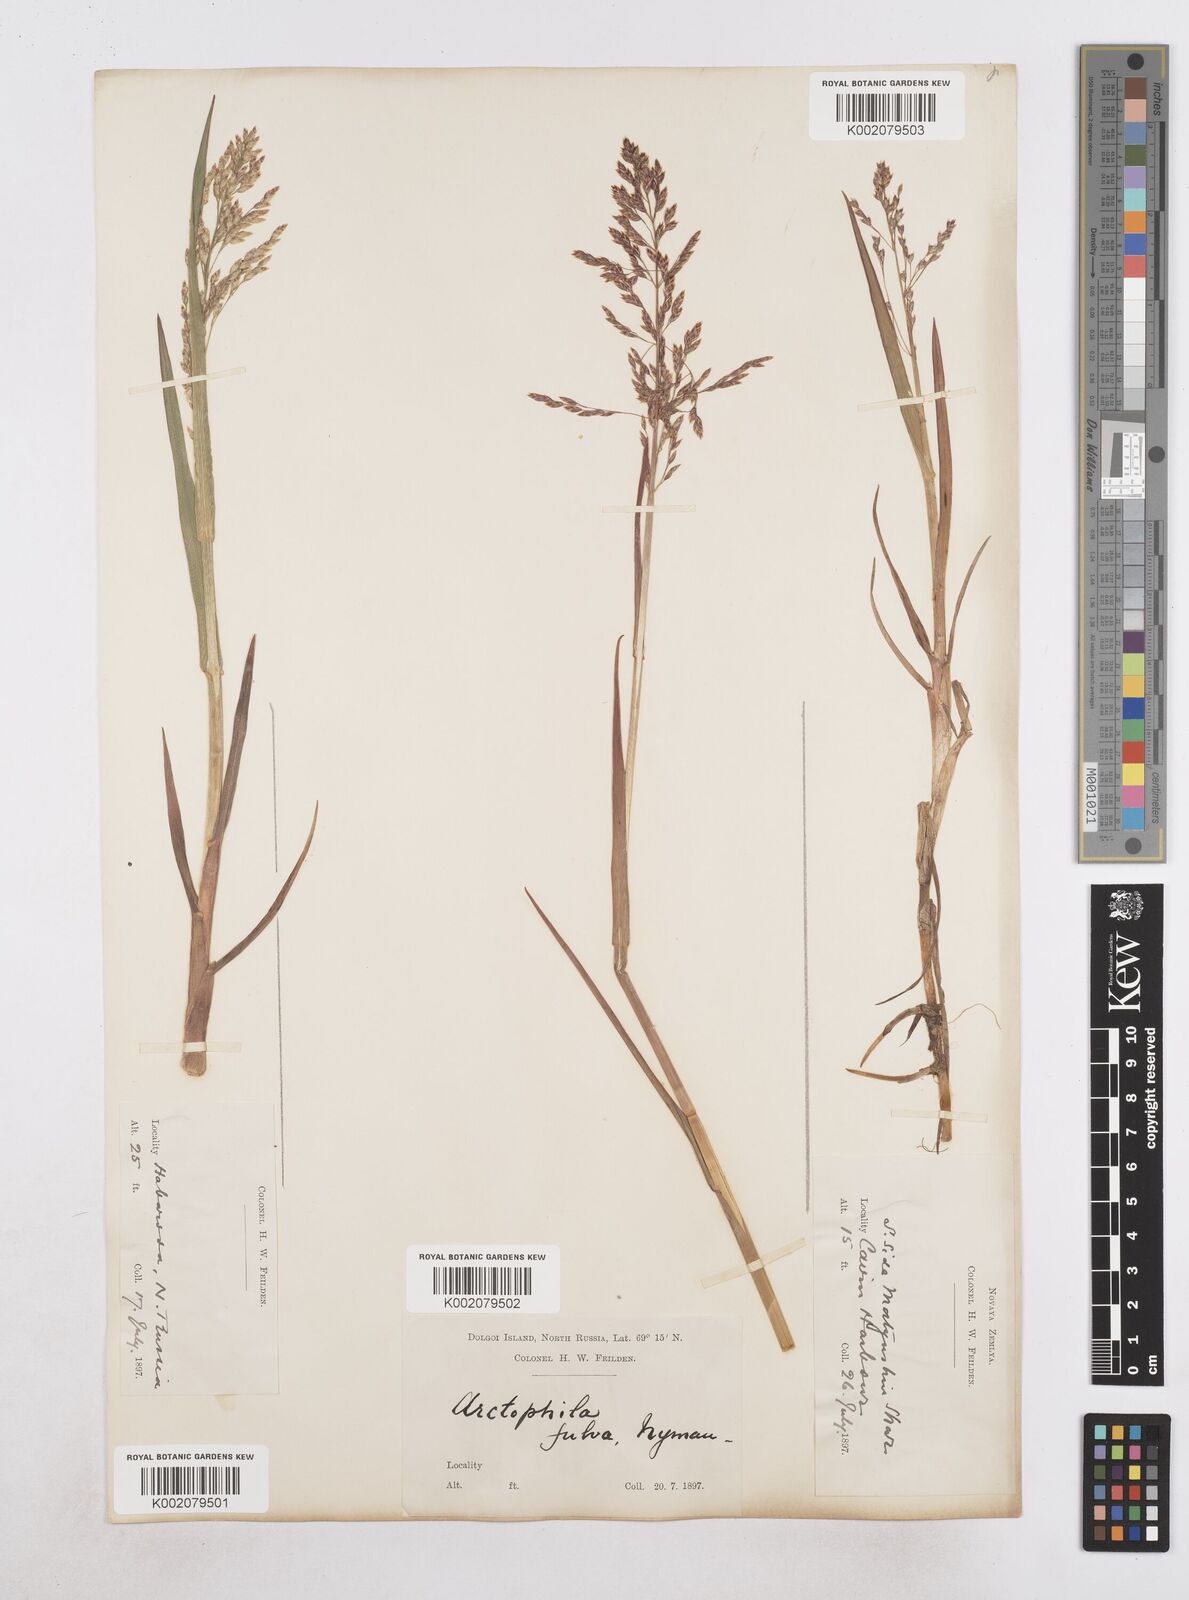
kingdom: Plantae
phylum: Tracheophyta
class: Liliopsida
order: Poales
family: Poaceae
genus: Dupontia
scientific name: Dupontia fulva
